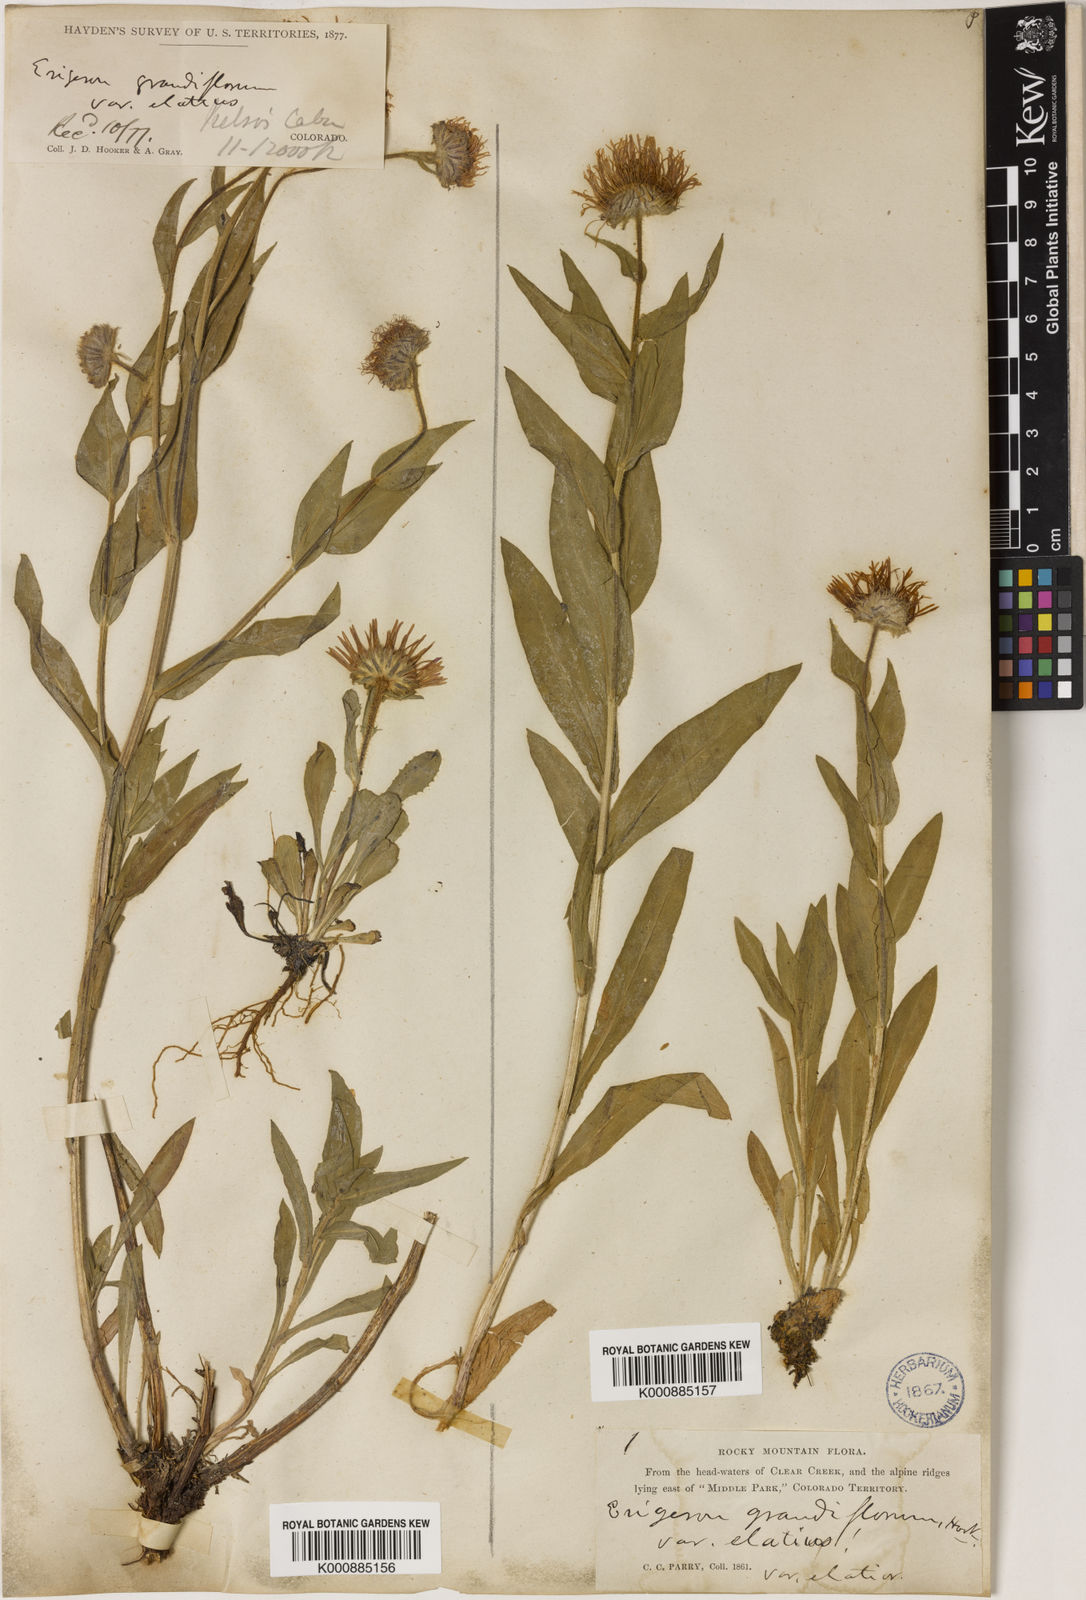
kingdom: Plantae
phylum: Tracheophyta
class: Magnoliopsida
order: Asterales
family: Asteraceae
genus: Erigeron
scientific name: Erigeron
